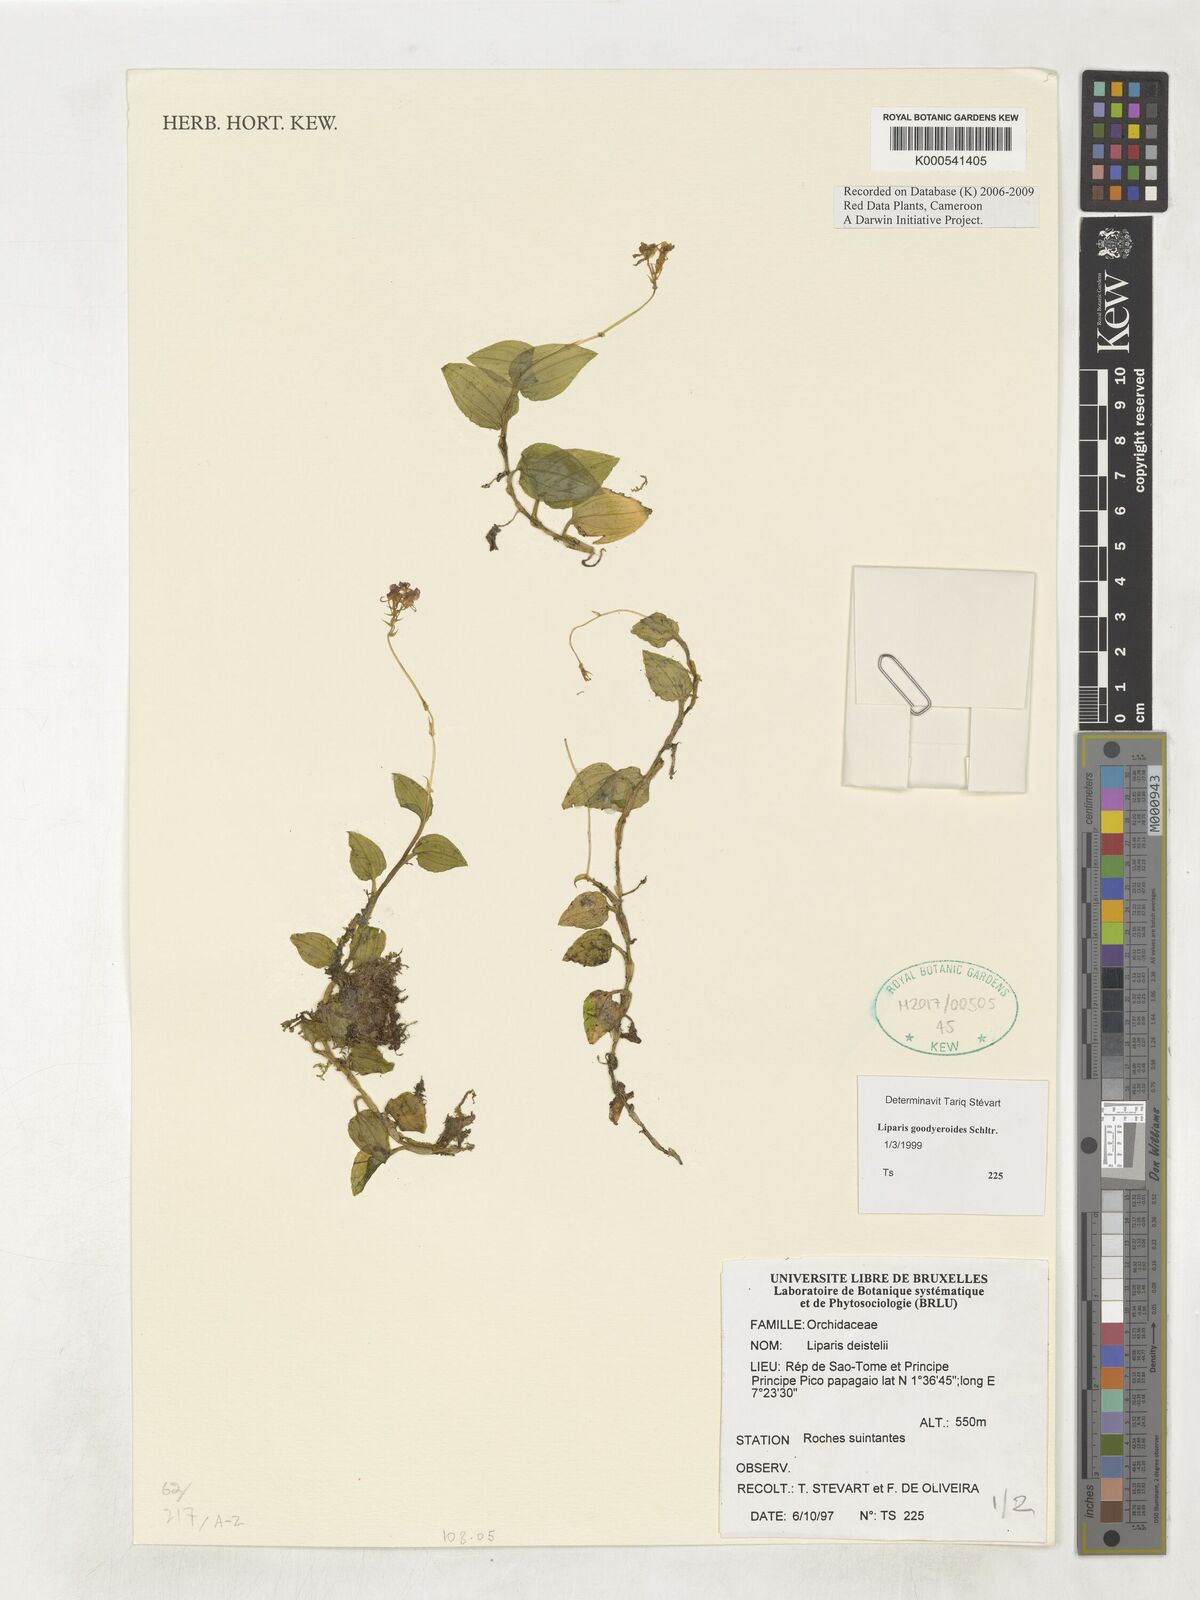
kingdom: Plantae
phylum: Tracheophyta
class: Liliopsida
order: Asparagales
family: Orchidaceae
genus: Liparis
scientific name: Liparis deistelii
